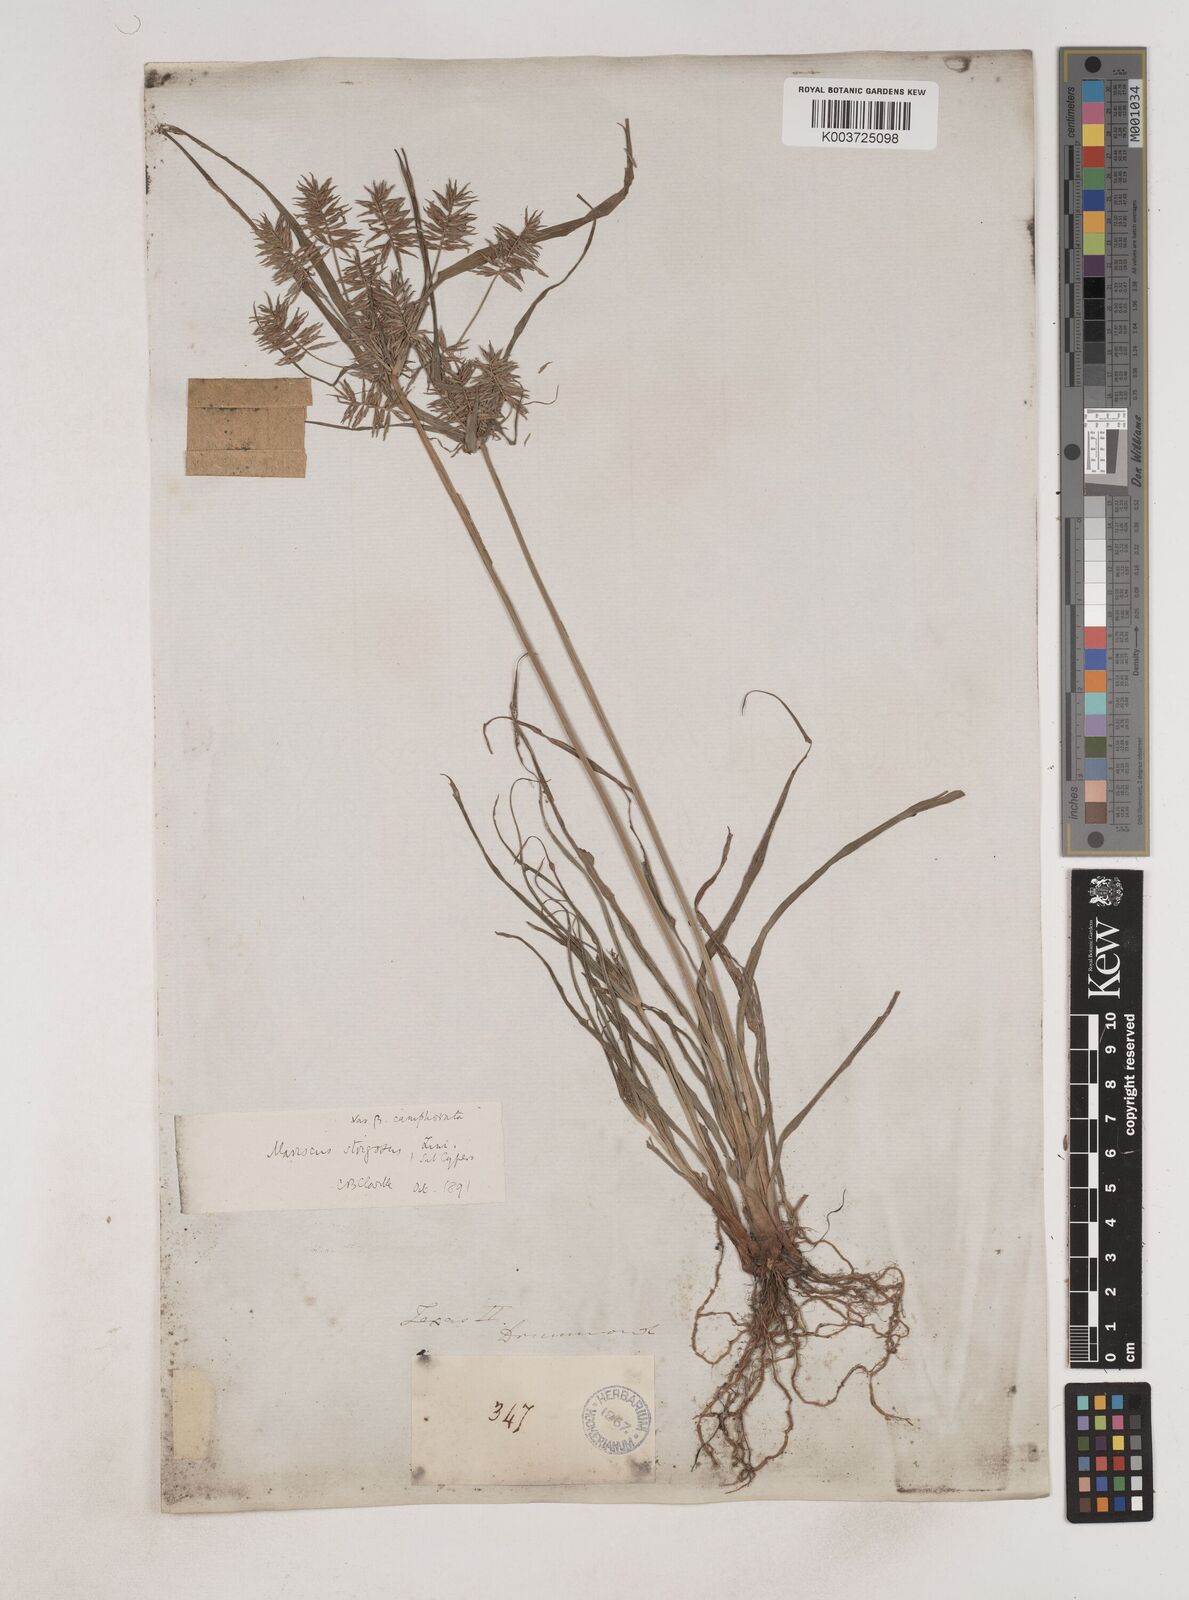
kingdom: Plantae
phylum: Tracheophyta
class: Liliopsida
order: Poales
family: Cyperaceae
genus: Cyperus
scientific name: Cyperus strigosus
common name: False nutsedge
